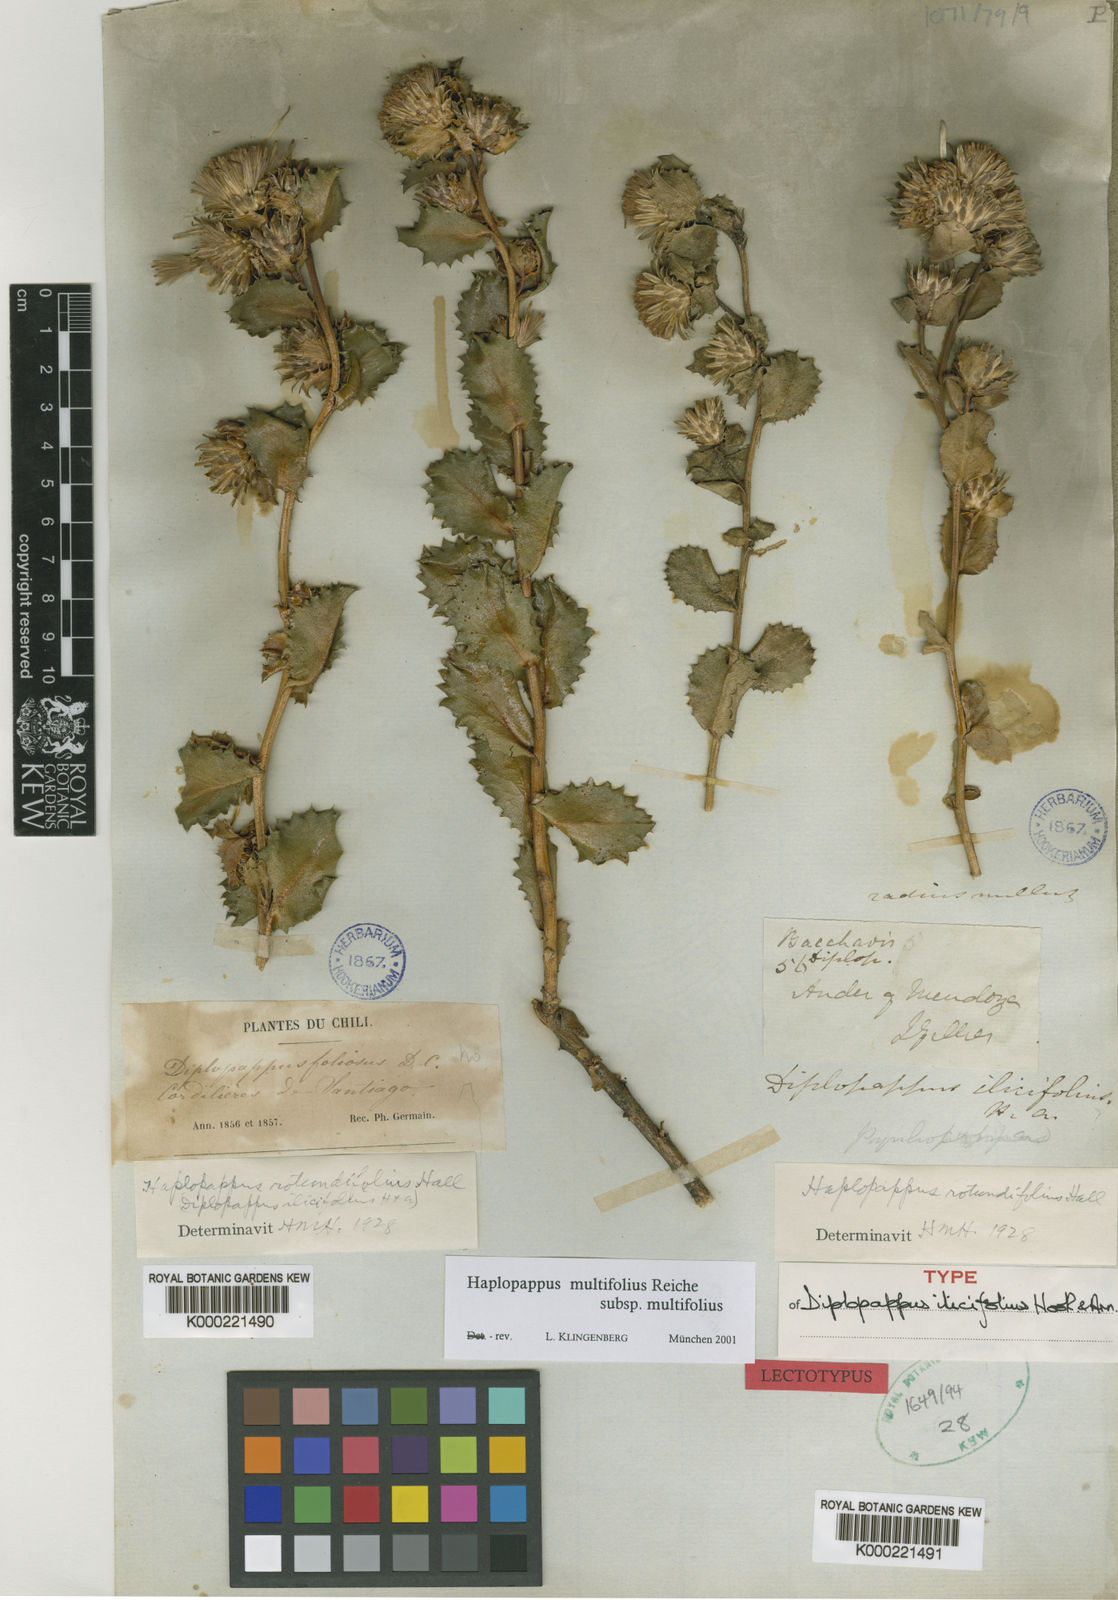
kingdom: Plantae
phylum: Tracheophyta
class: Magnoliopsida
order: Asterales
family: Asteraceae
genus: Haplopappus
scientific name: Haplopappus multifolius
